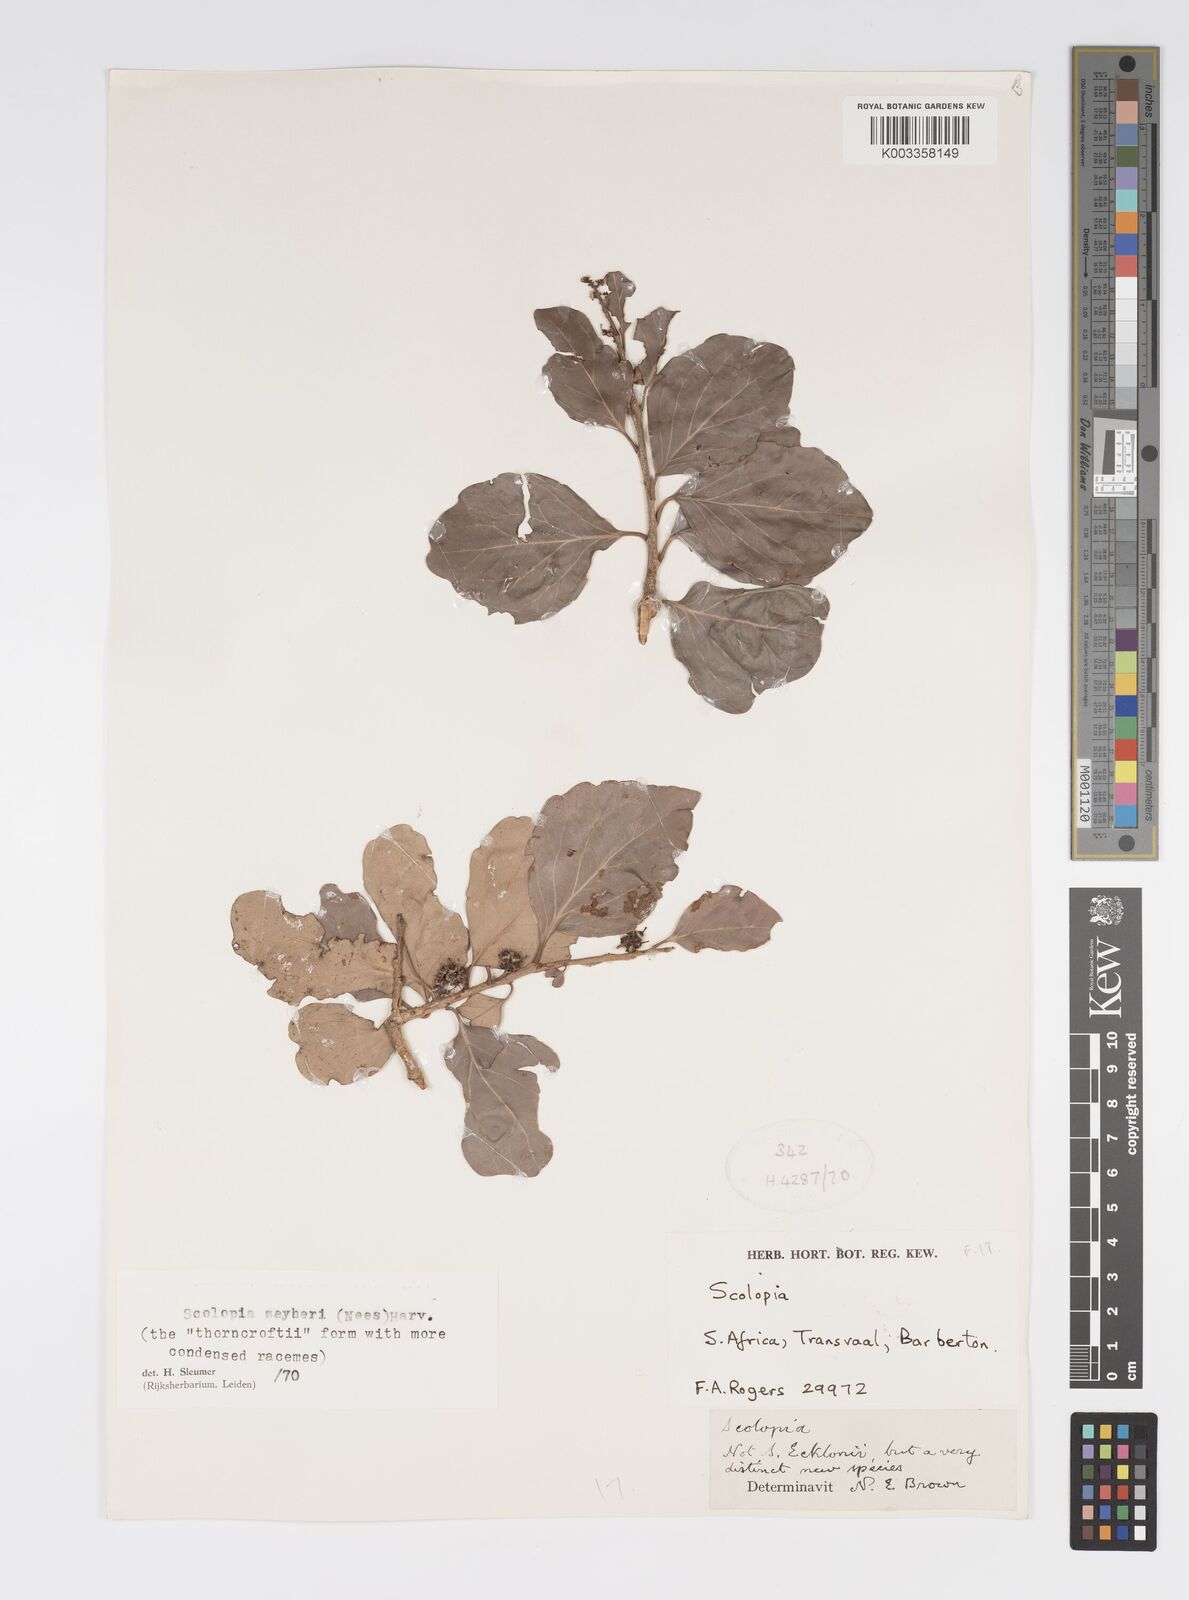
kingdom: Plantae
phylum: Tracheophyta
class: Magnoliopsida
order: Malpighiales
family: Salicaceae
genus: Scolopia
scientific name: Scolopia zeyheri
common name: Thorn pear
